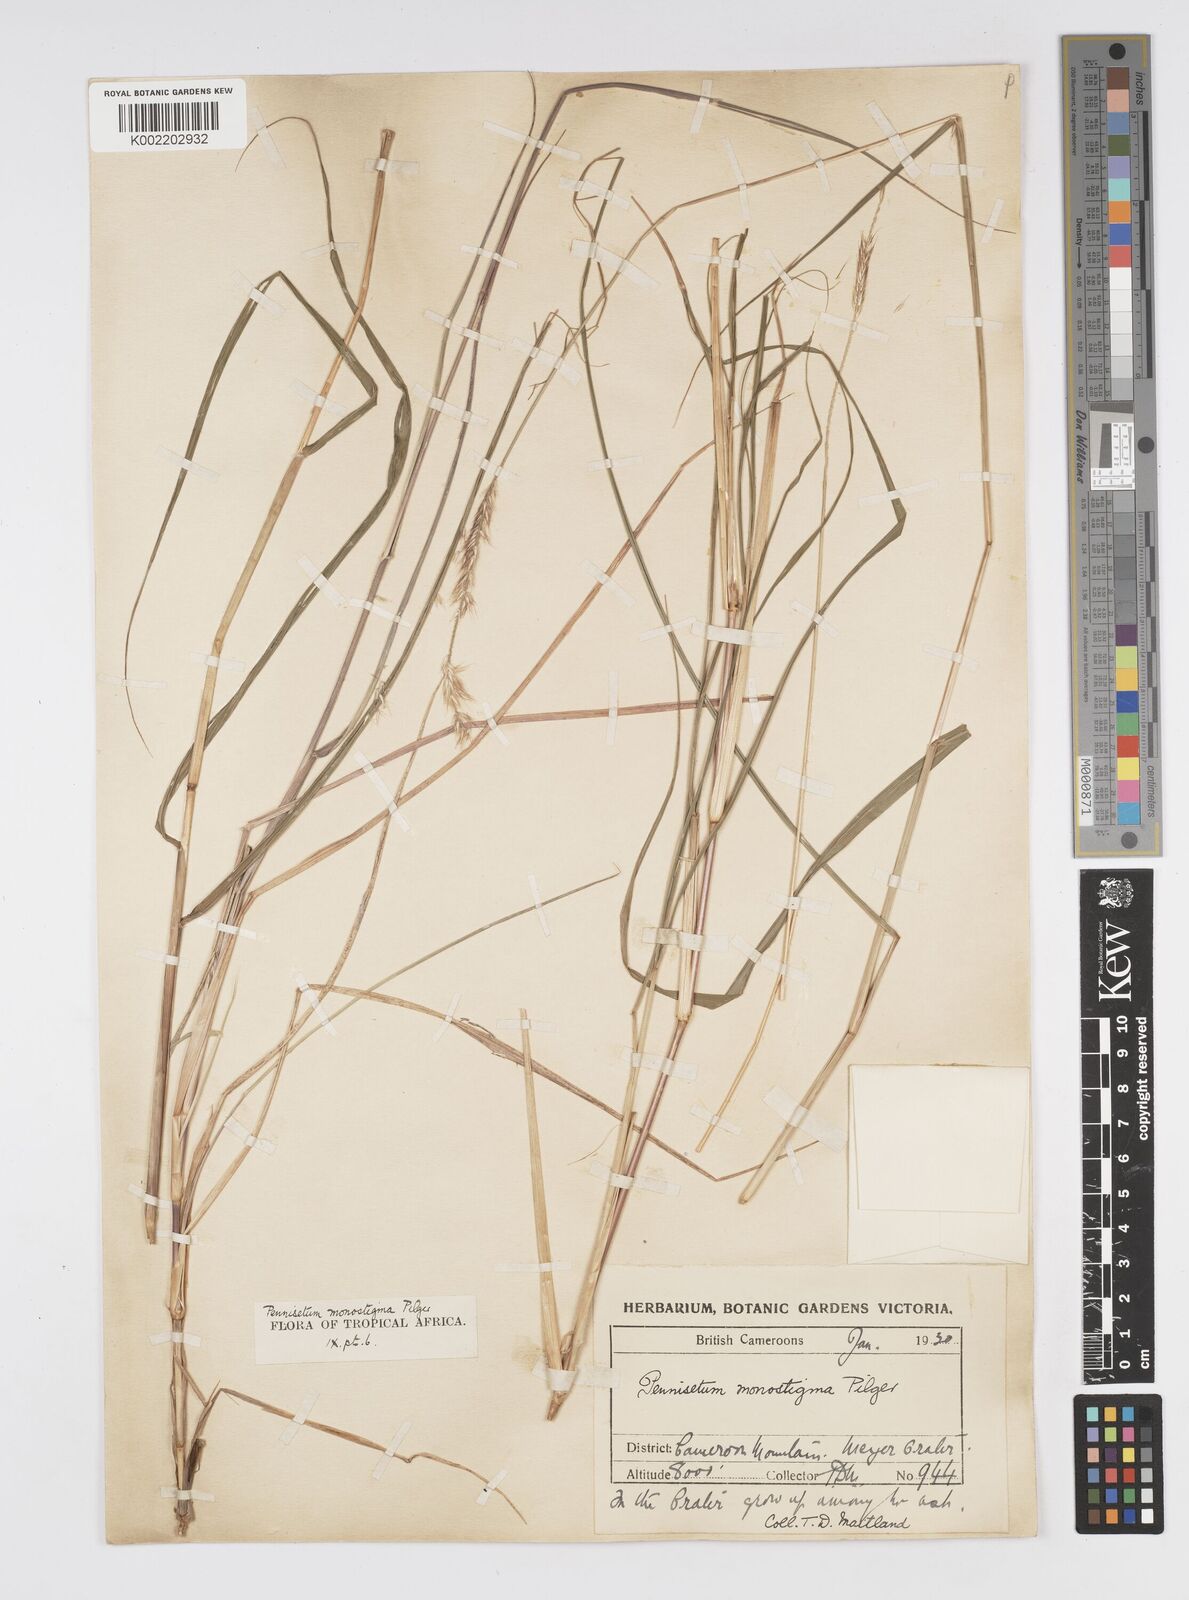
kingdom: Plantae
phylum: Tracheophyta
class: Liliopsida
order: Poales
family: Poaceae
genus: Cenchrus
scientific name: Cenchrus monostigma
